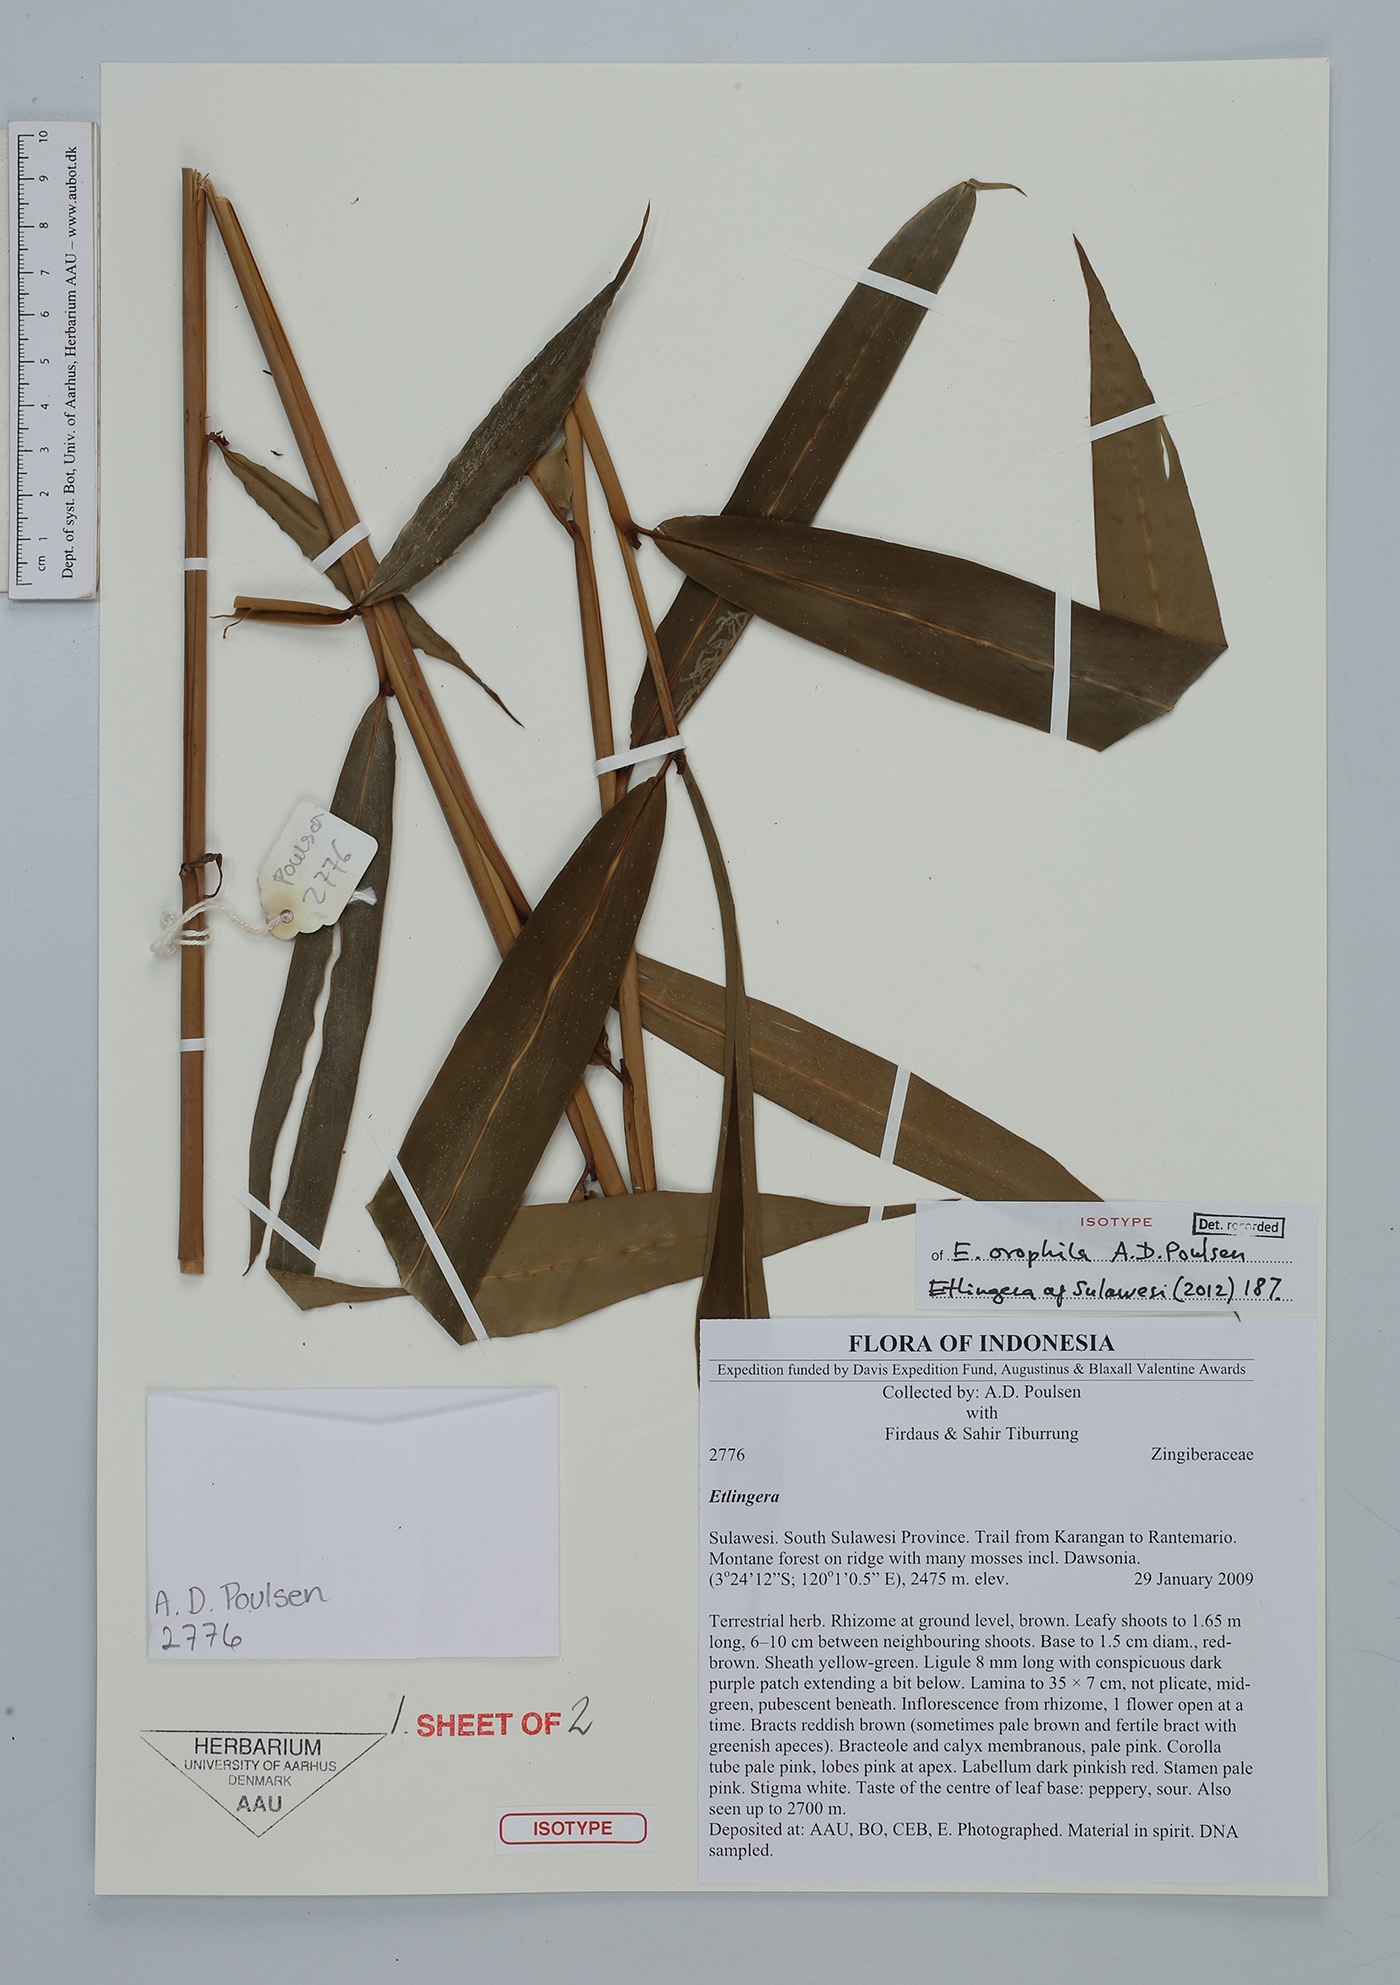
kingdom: Plantae
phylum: Tracheophyta
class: Liliopsida
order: Zingiberales
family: Zingiberaceae
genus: Etlingera
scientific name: Etlingera orophila
